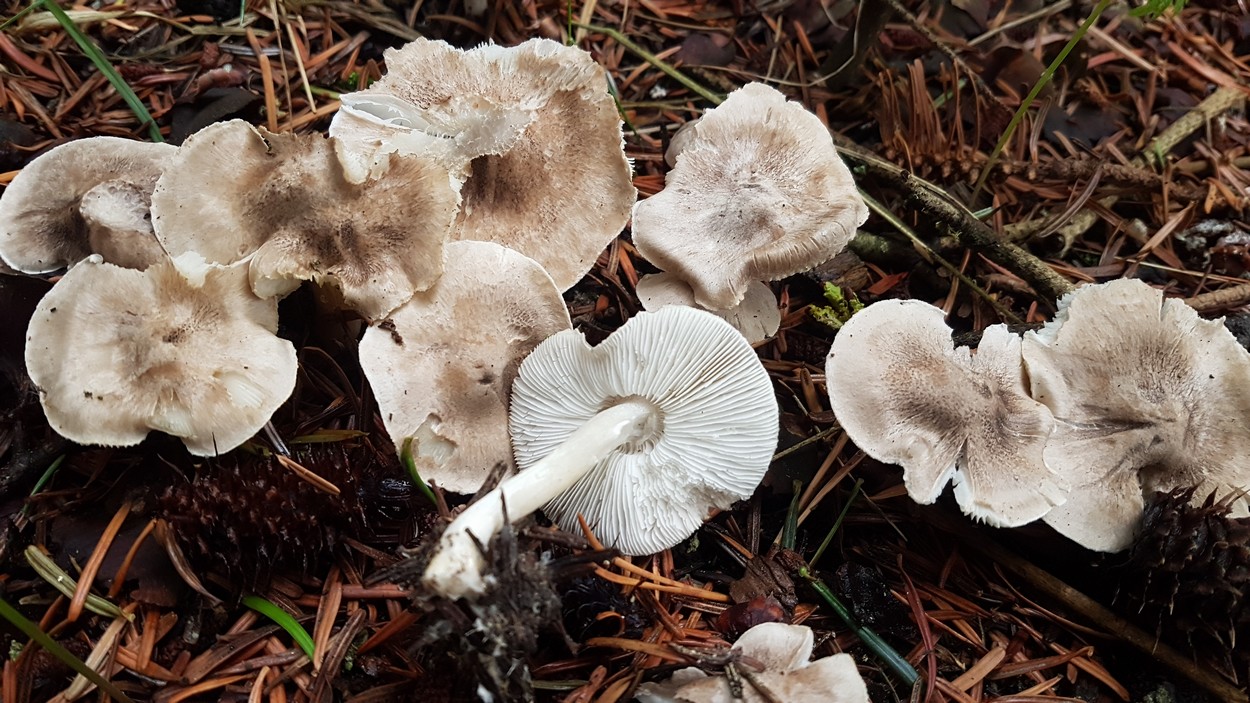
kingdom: Fungi
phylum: Basidiomycota
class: Agaricomycetes
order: Agaricales
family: Tricholomataceae
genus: Tricholoma
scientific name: Tricholoma scalpturatum
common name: gulplettet ridderhat
